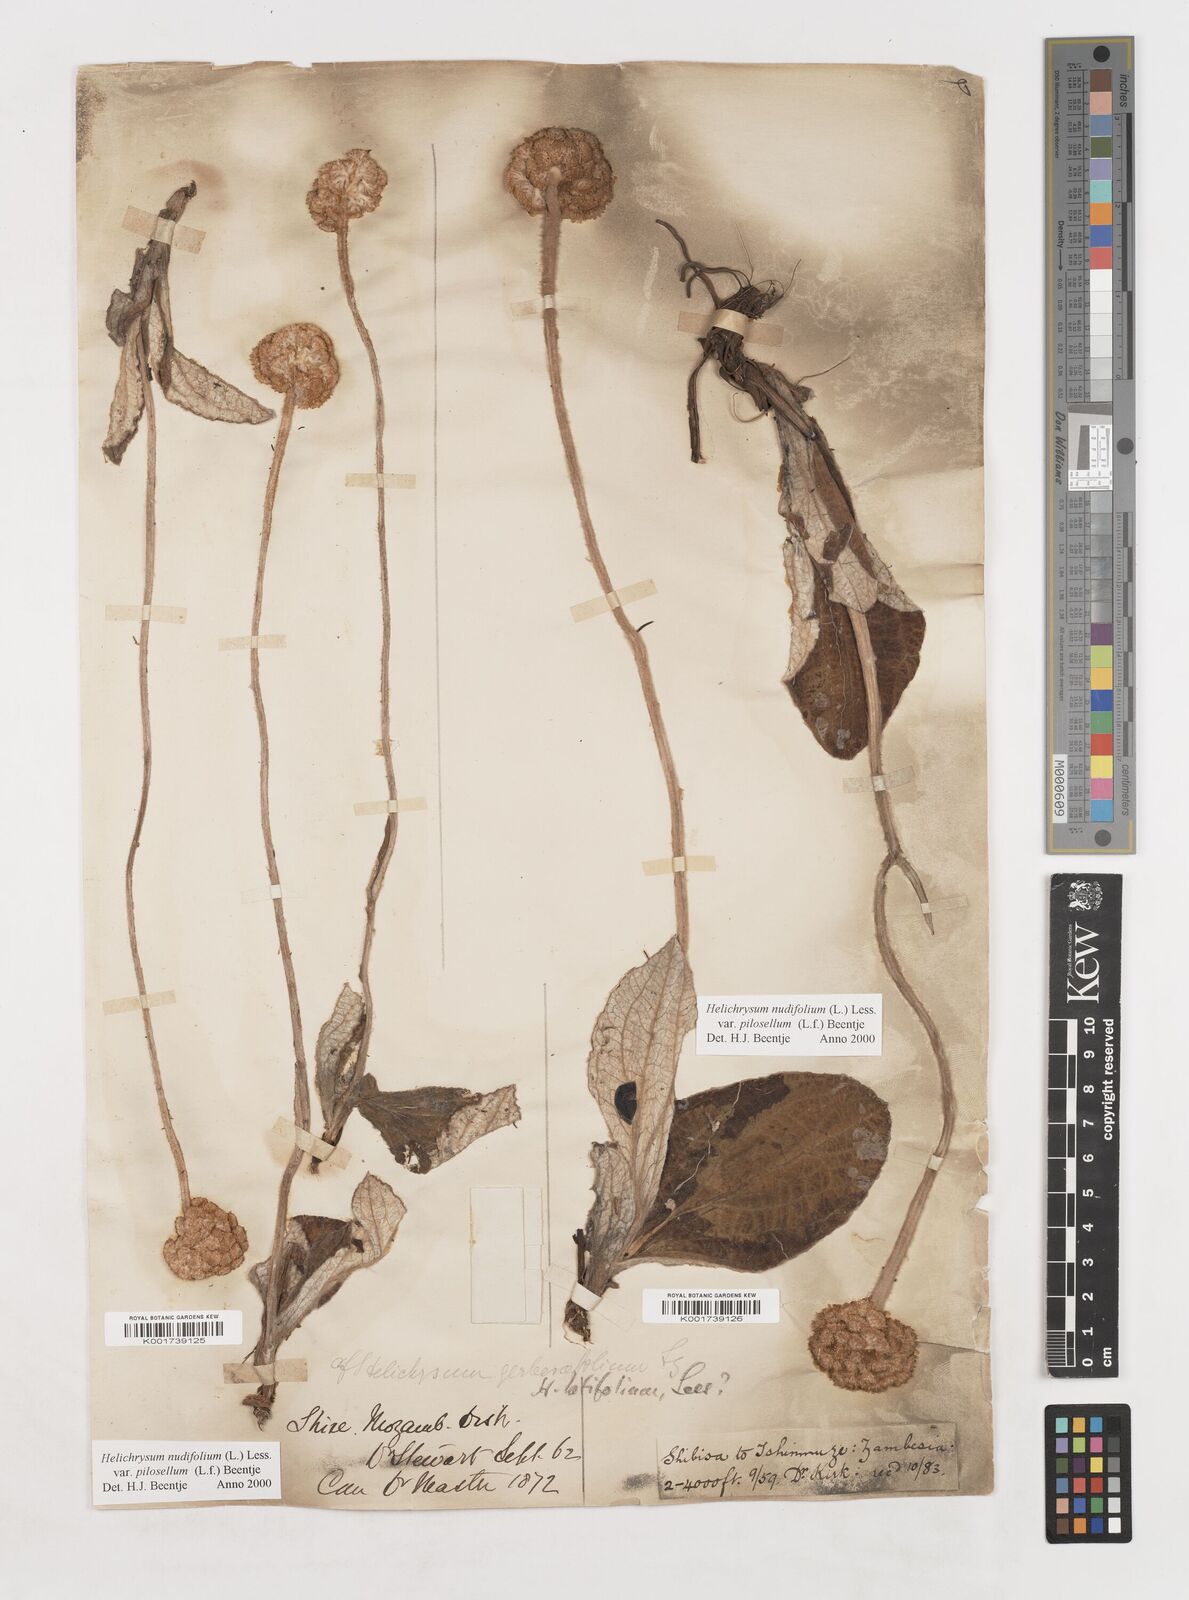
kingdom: Plantae
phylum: Tracheophyta
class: Magnoliopsida
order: Asterales
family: Asteraceae
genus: Helichrysum
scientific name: Helichrysum nudifolium
